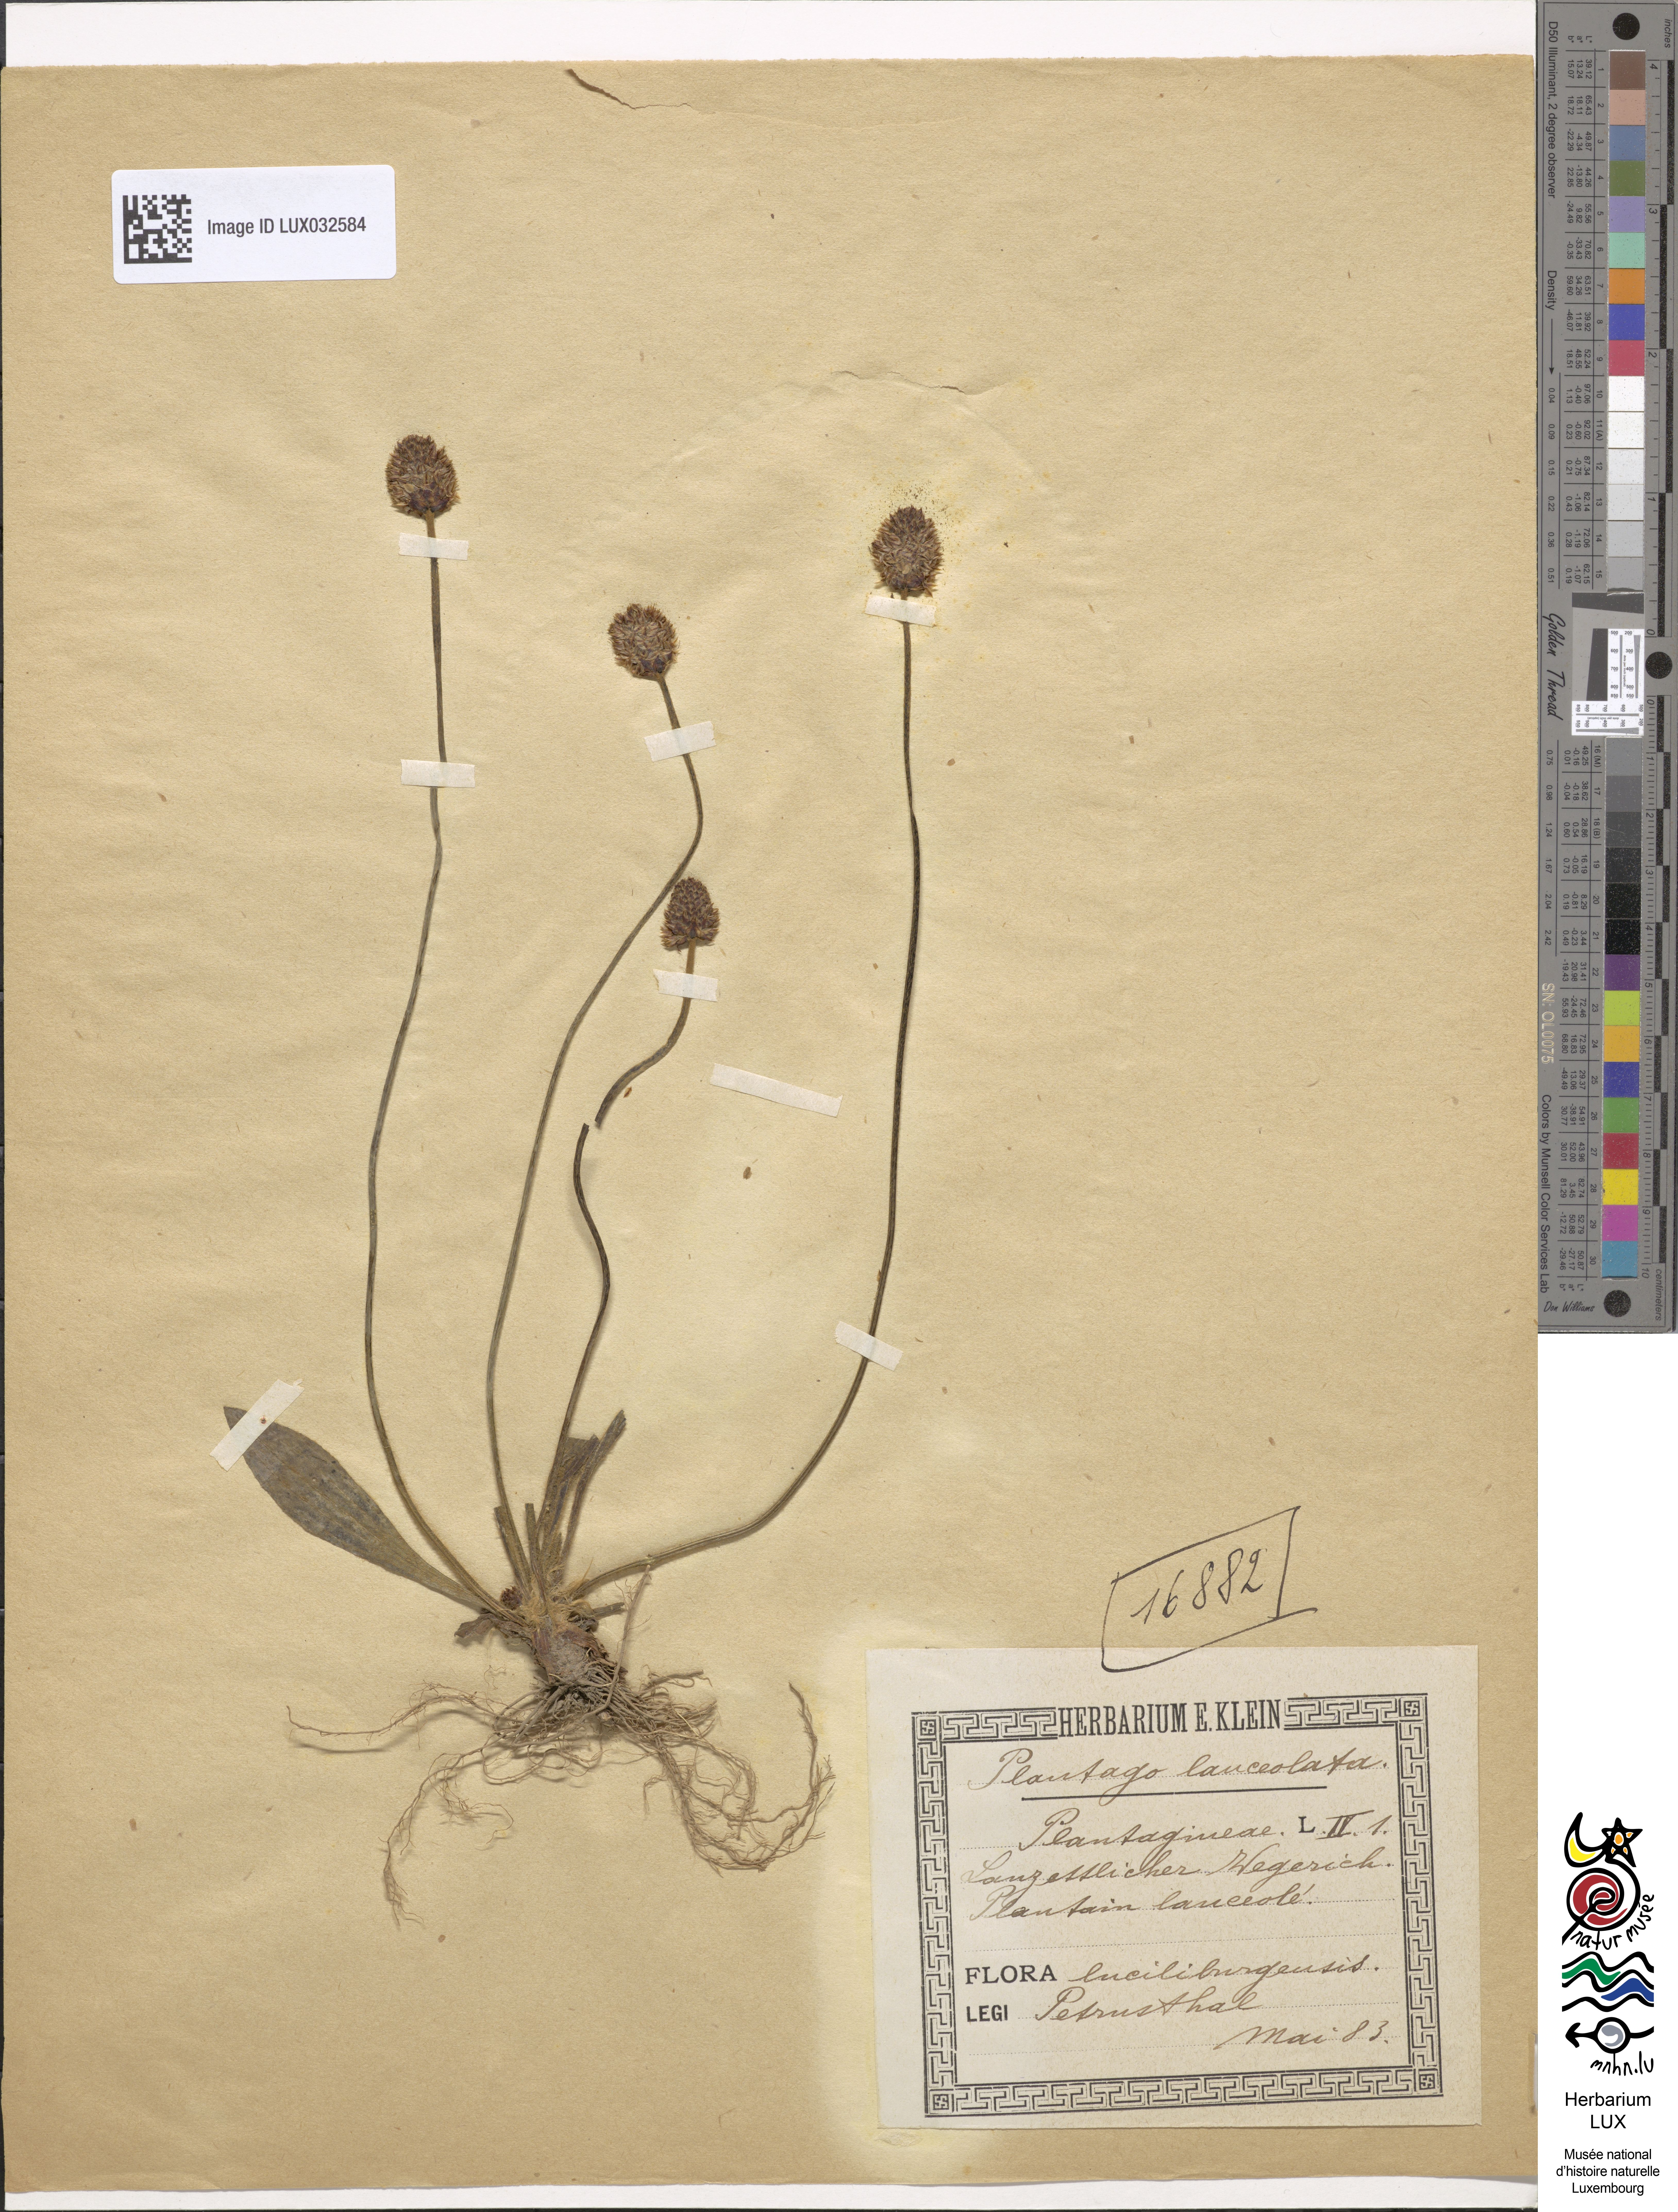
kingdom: Plantae
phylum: Tracheophyta
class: Magnoliopsida
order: Lamiales
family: Plantaginaceae
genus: Plantago
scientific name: Plantago lanceolata
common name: Ribwort plantain
